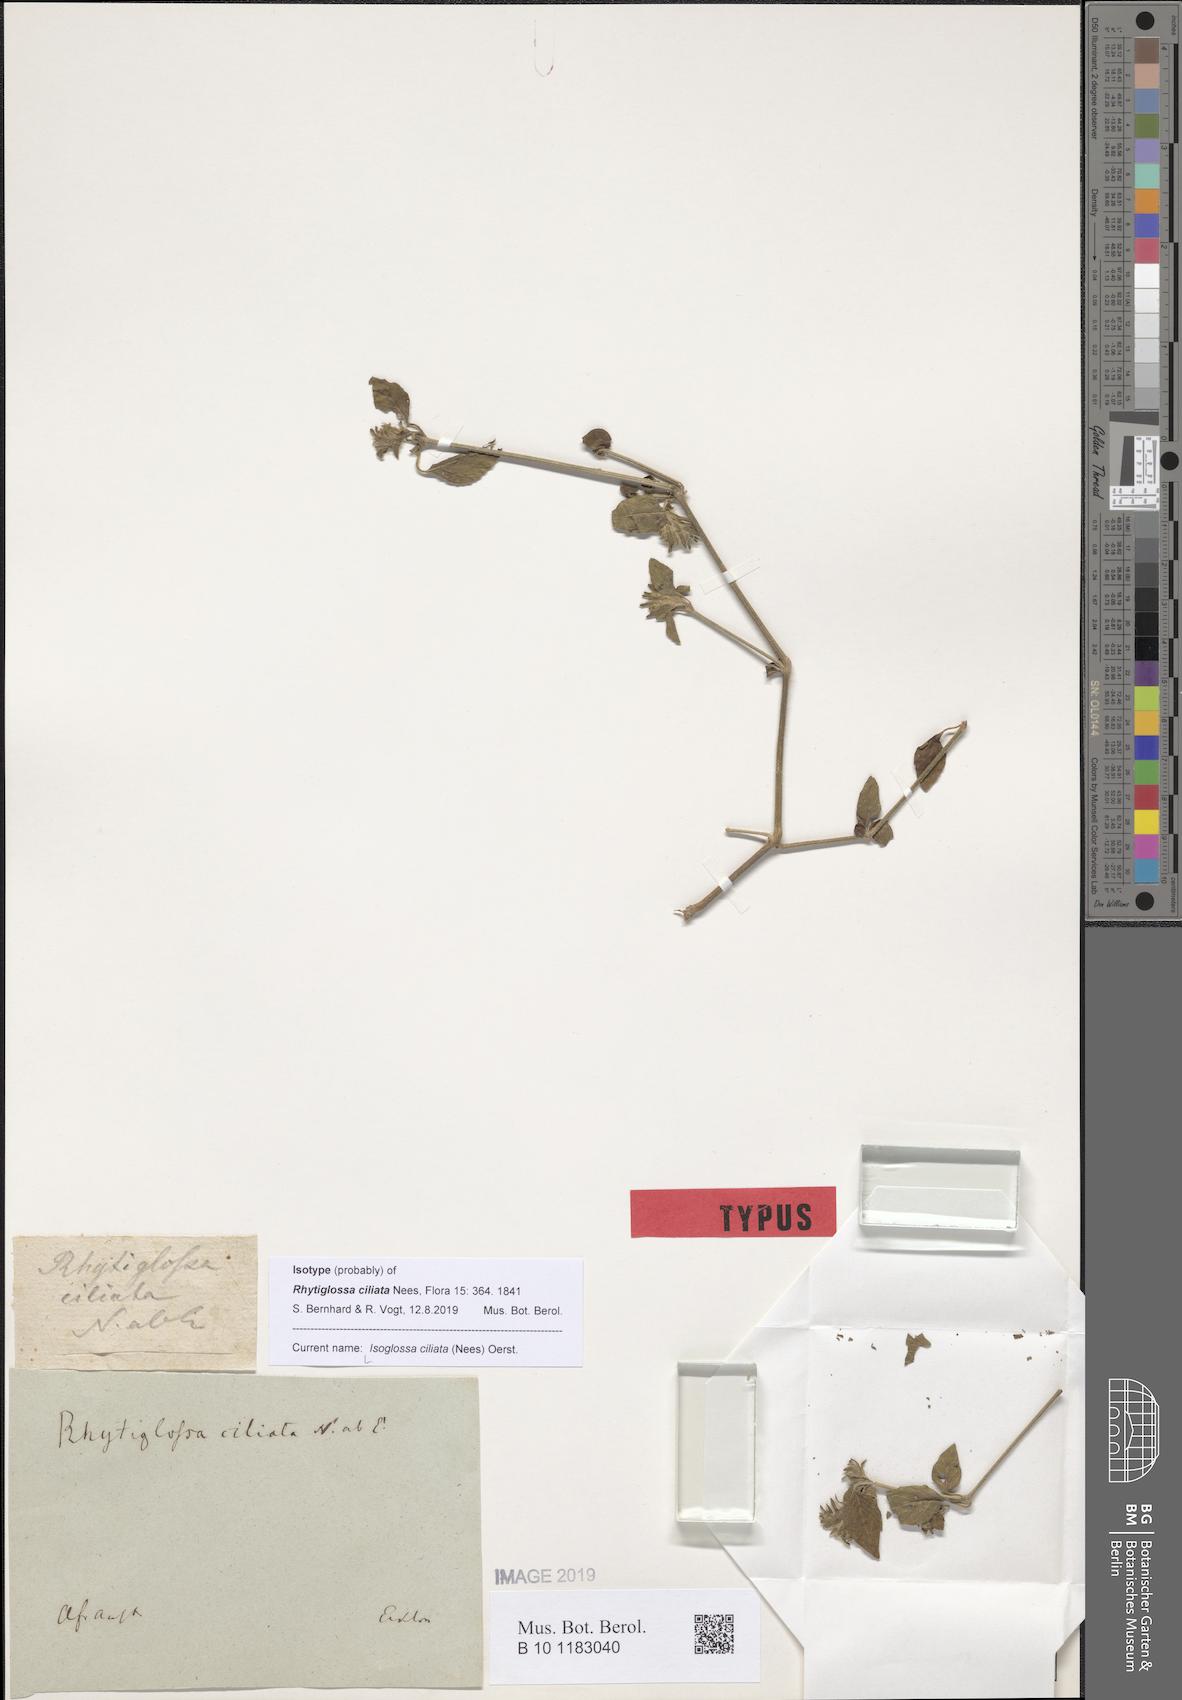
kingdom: Plantae
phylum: Tracheophyta
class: Magnoliopsida
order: Lamiales
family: Acanthaceae
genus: Isoglossa
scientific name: Isoglossa ciliata
